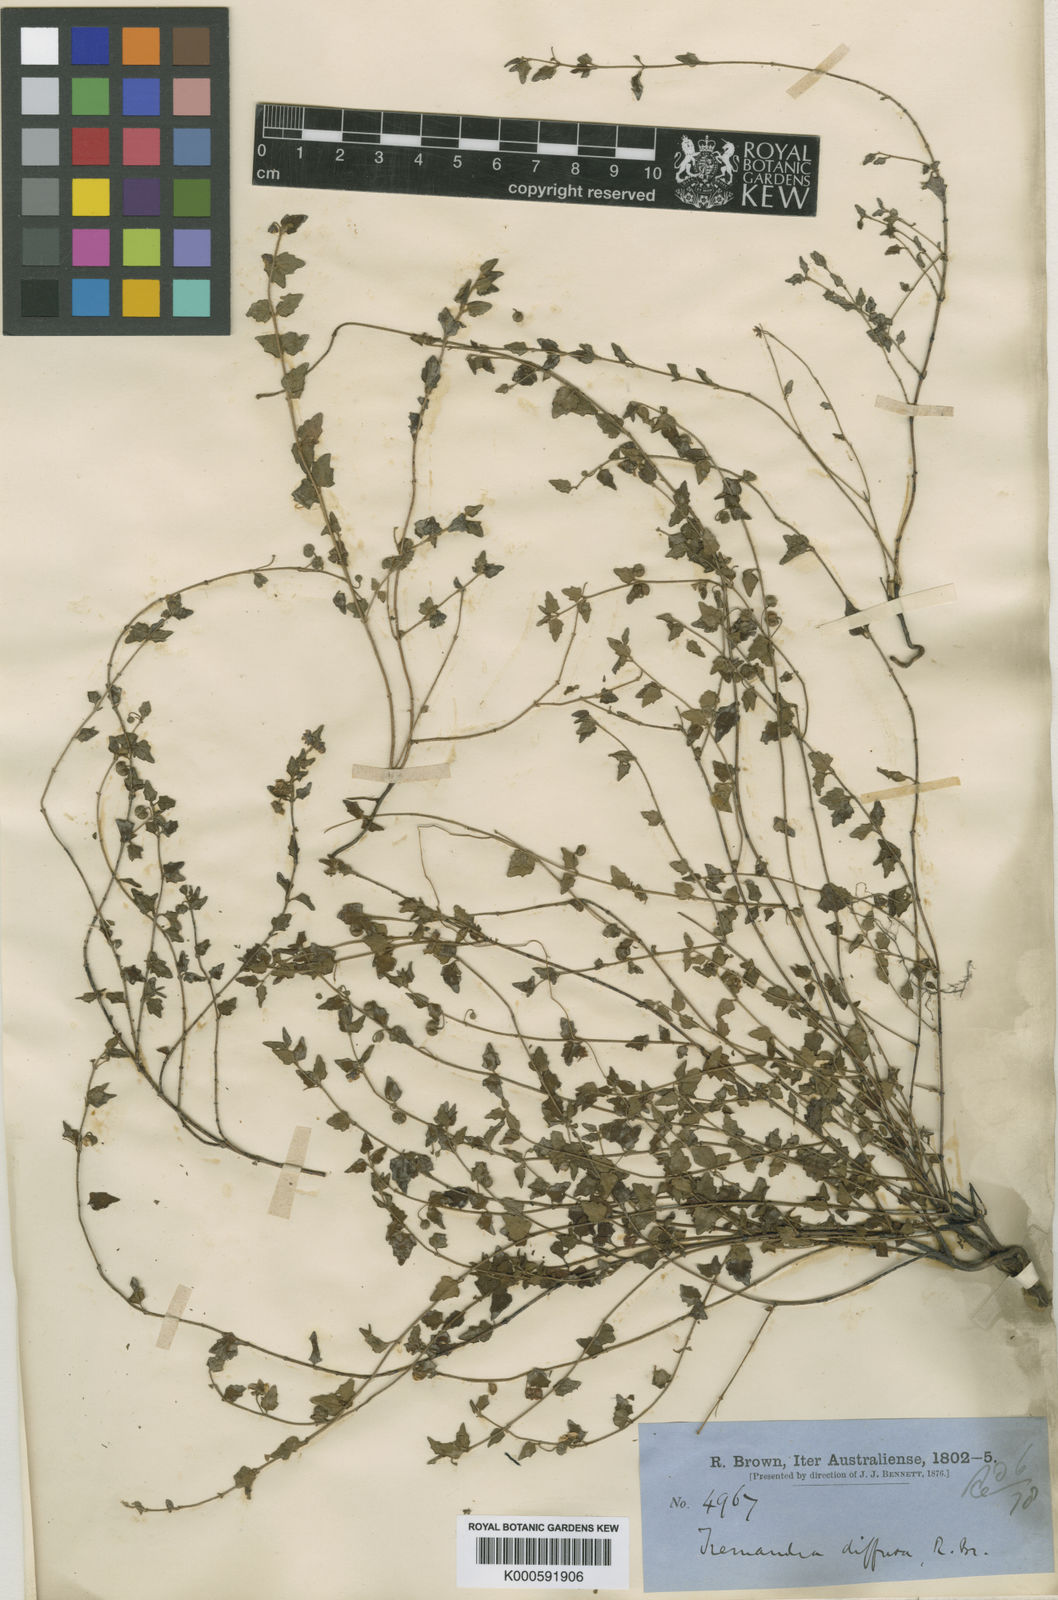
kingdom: Plantae
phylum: Tracheophyta
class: Magnoliopsida
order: Oxalidales
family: Elaeocarpaceae
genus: Tremandra
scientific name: Tremandra diffusa
